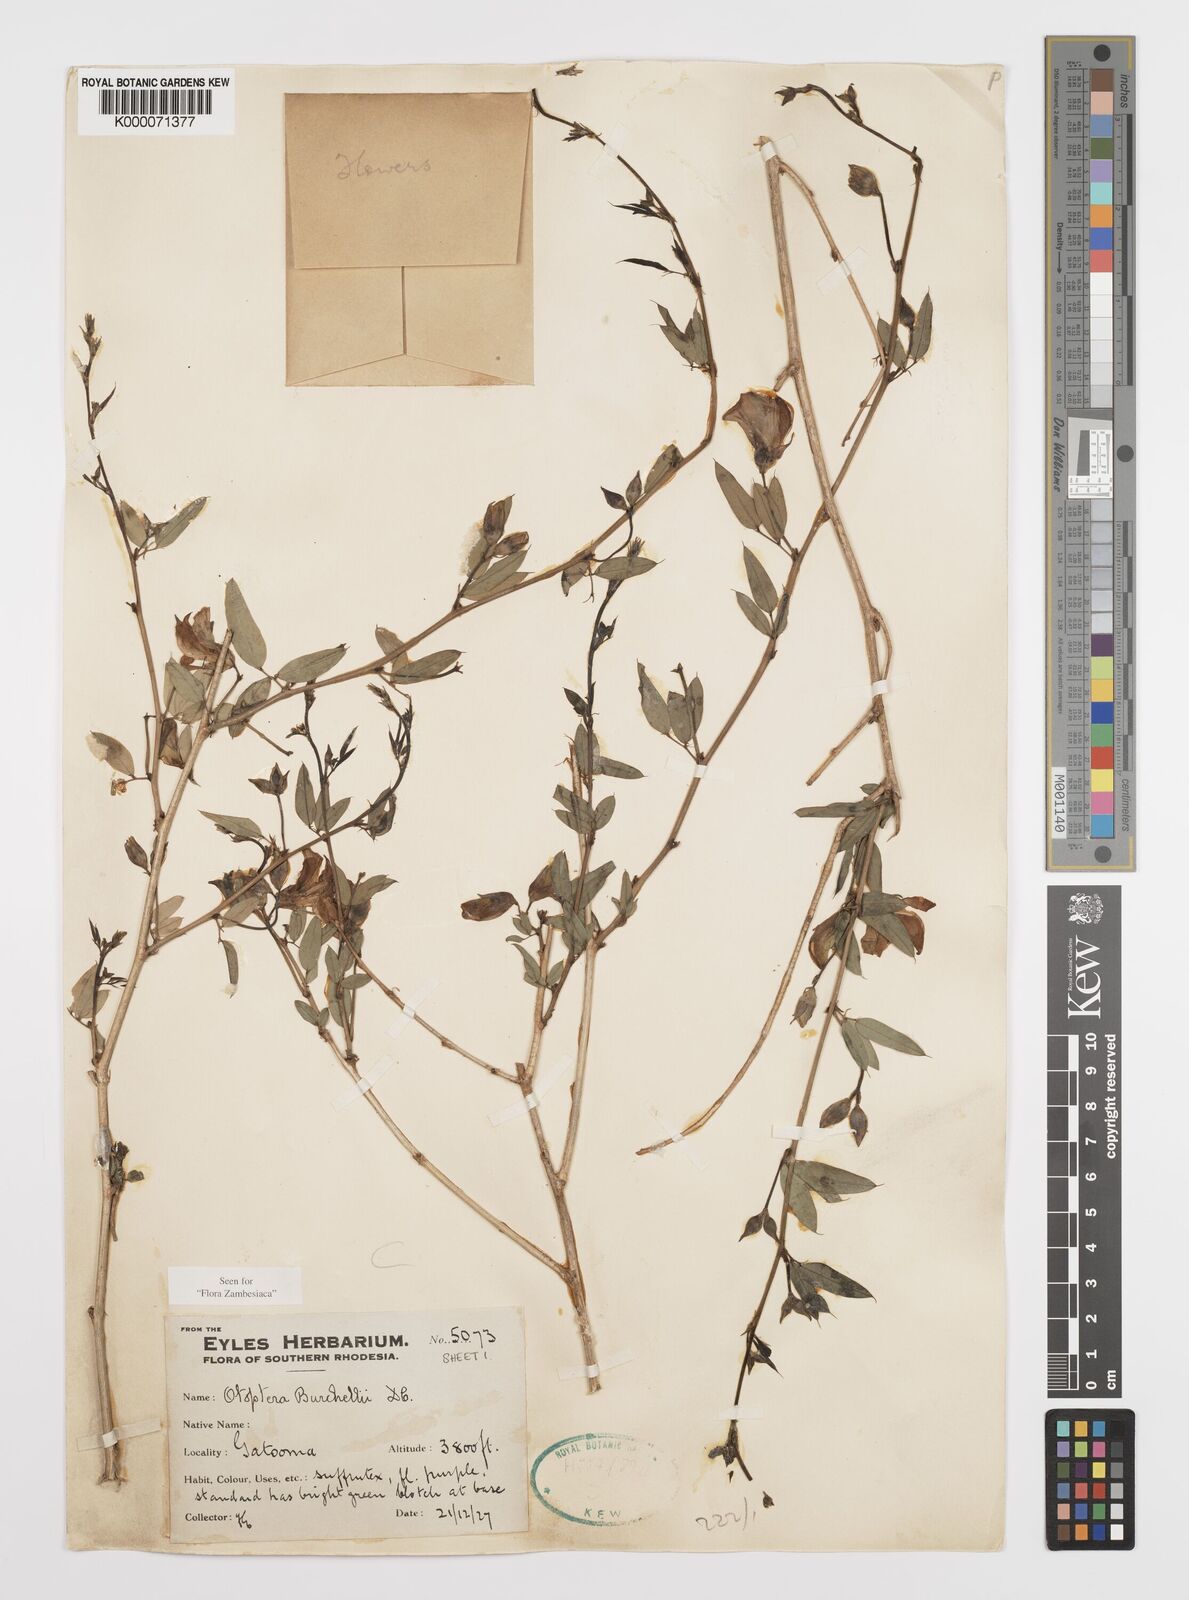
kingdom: Plantae
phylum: Tracheophyta
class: Magnoliopsida
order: Fabales
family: Fabaceae
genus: Otoptera
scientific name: Otoptera burchellii
